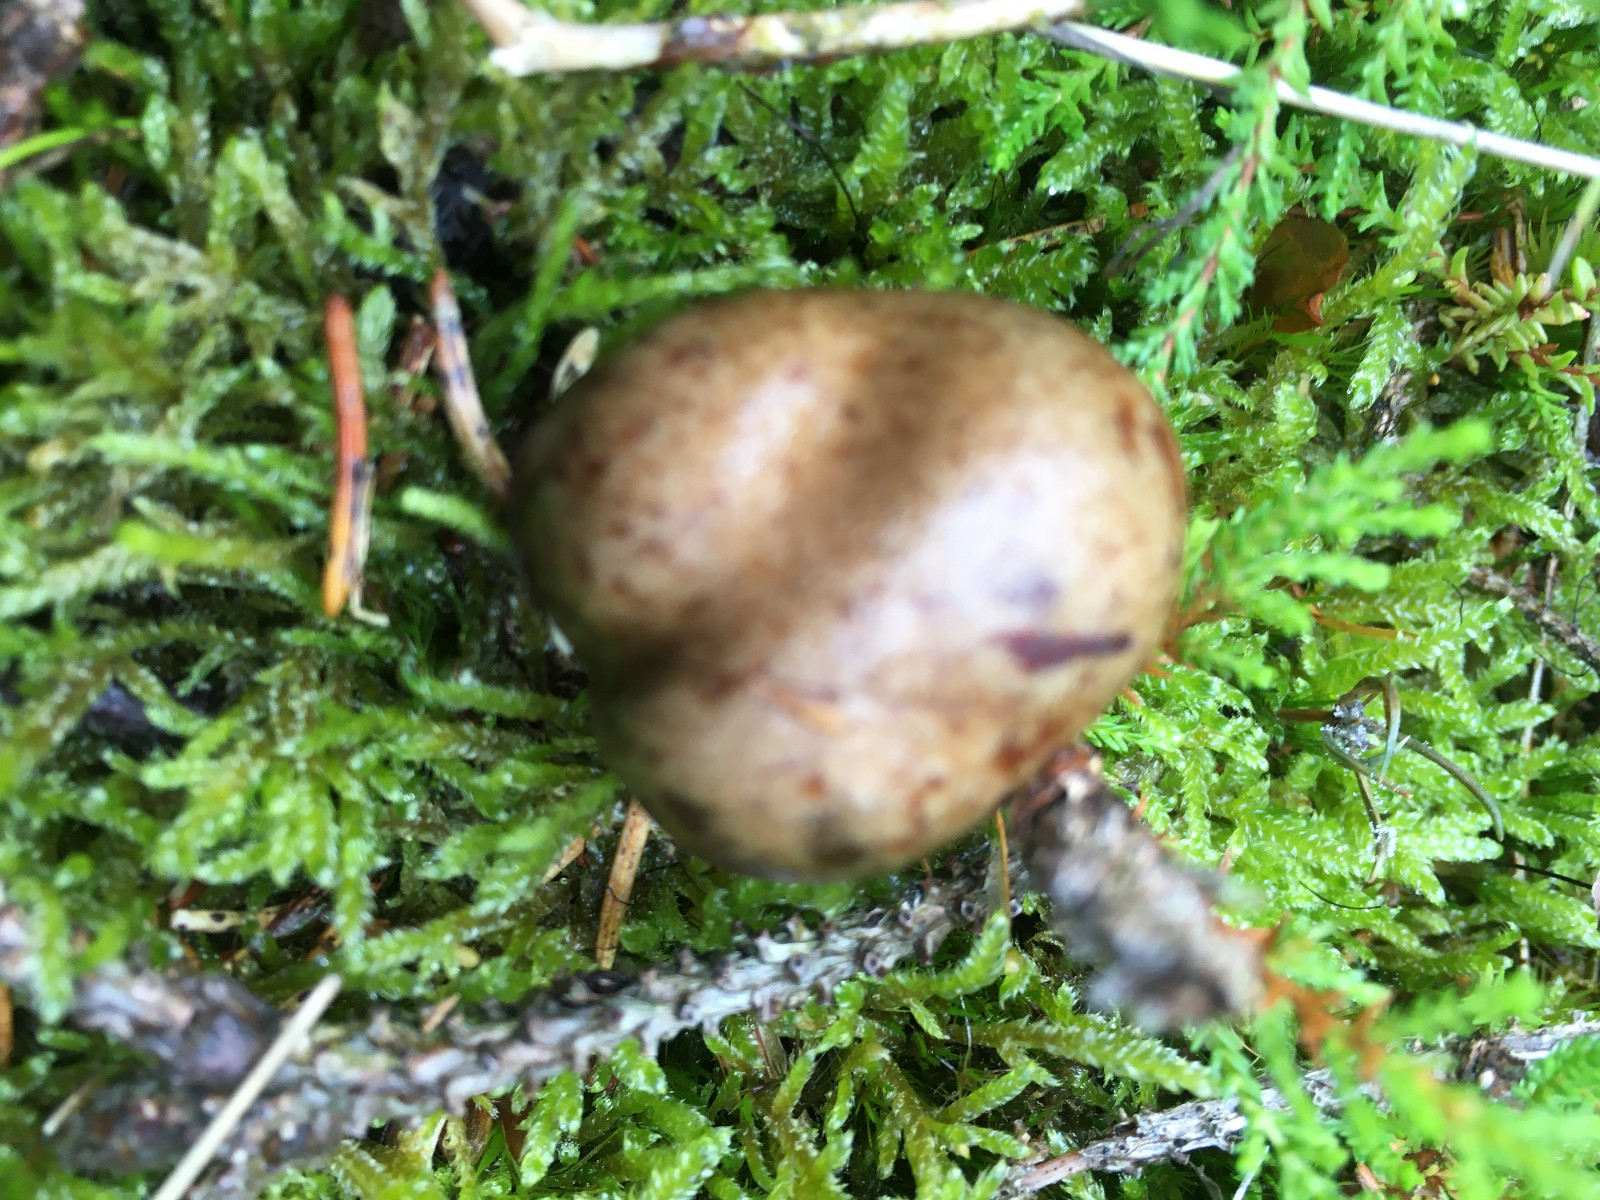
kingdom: Fungi
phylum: Basidiomycota
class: Agaricomycetes
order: Agaricales
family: Cortinariaceae
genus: Cortinarius
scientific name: Cortinarius
